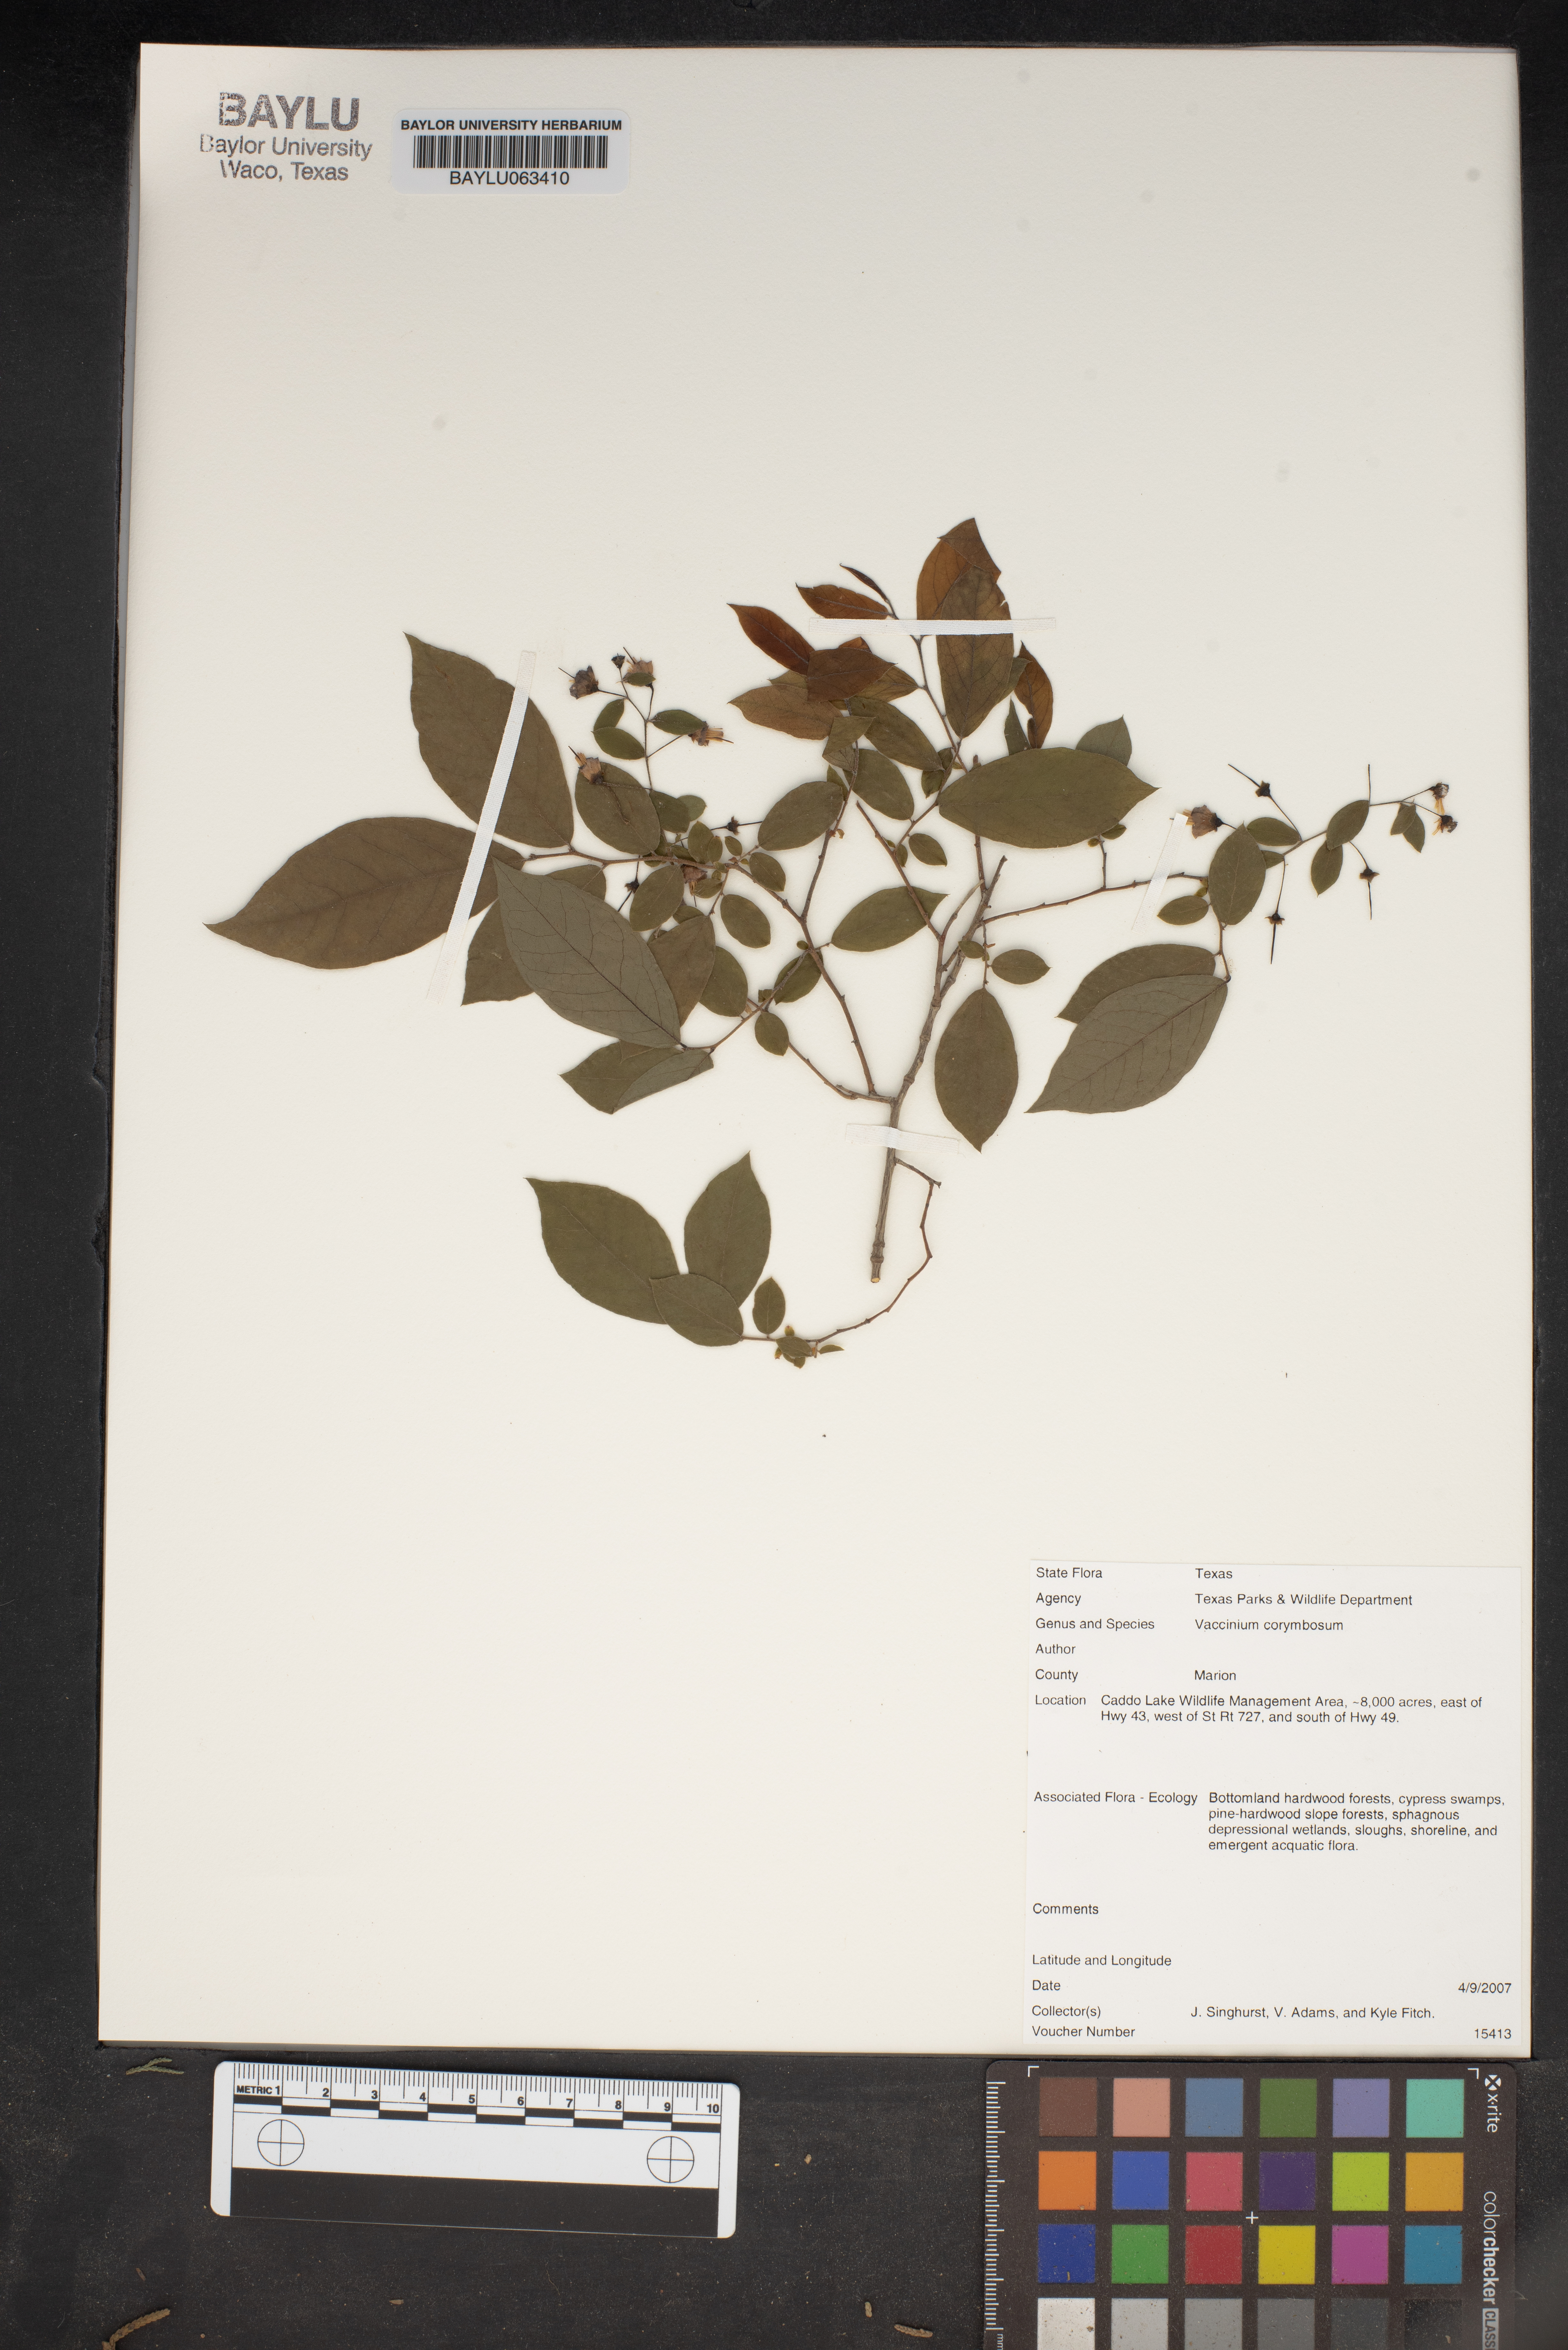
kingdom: Plantae
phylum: Tracheophyta
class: Magnoliopsida
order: Ericales
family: Ericaceae
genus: Vaccinium
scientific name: Vaccinium corymbosum
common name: Blueberry
